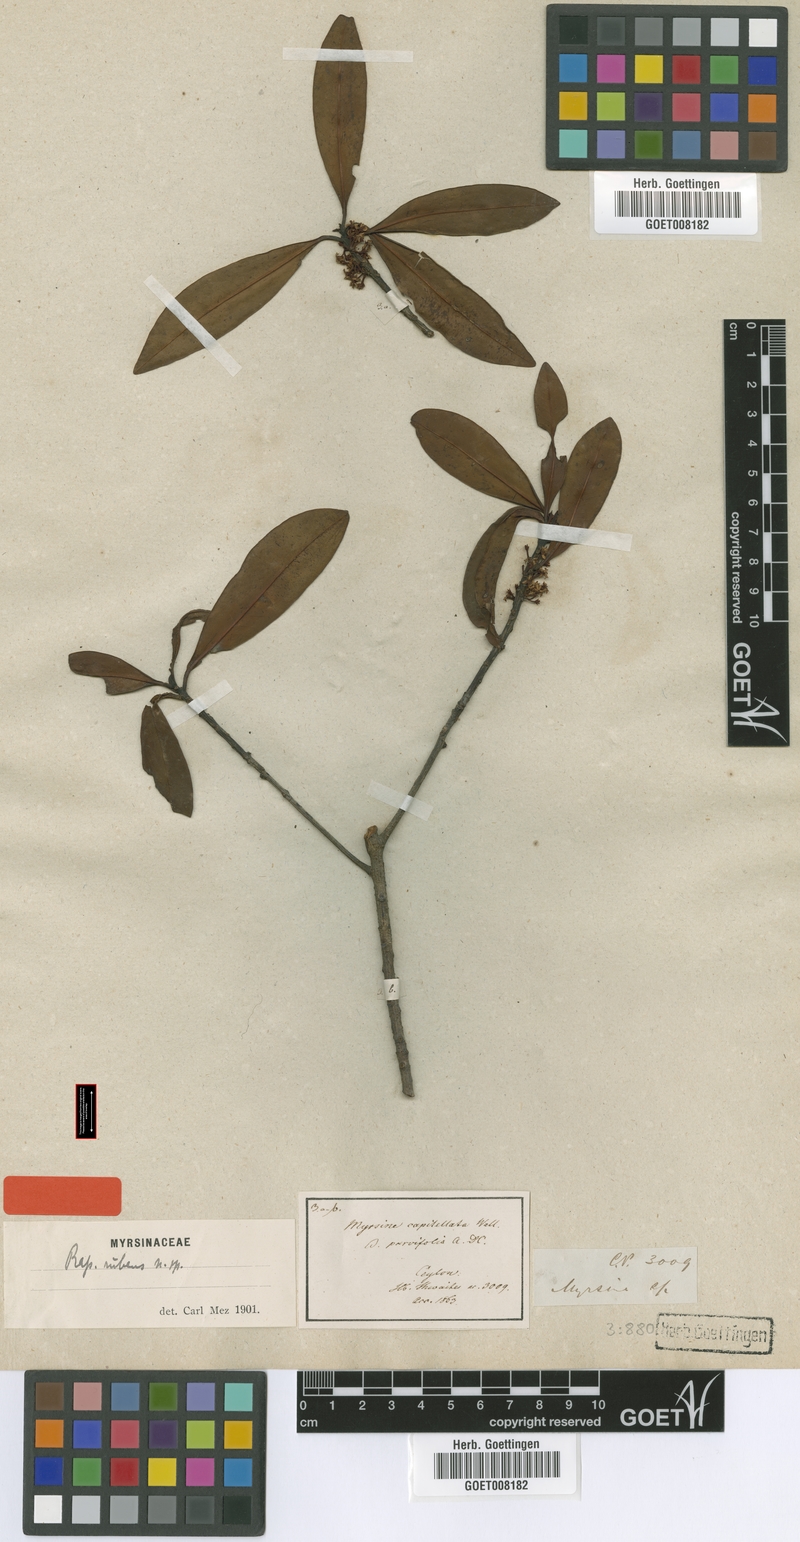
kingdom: Plantae
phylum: Tracheophyta
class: Magnoliopsida
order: Ericales
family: Primulaceae
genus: Myrsine
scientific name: Myrsine wightiana
